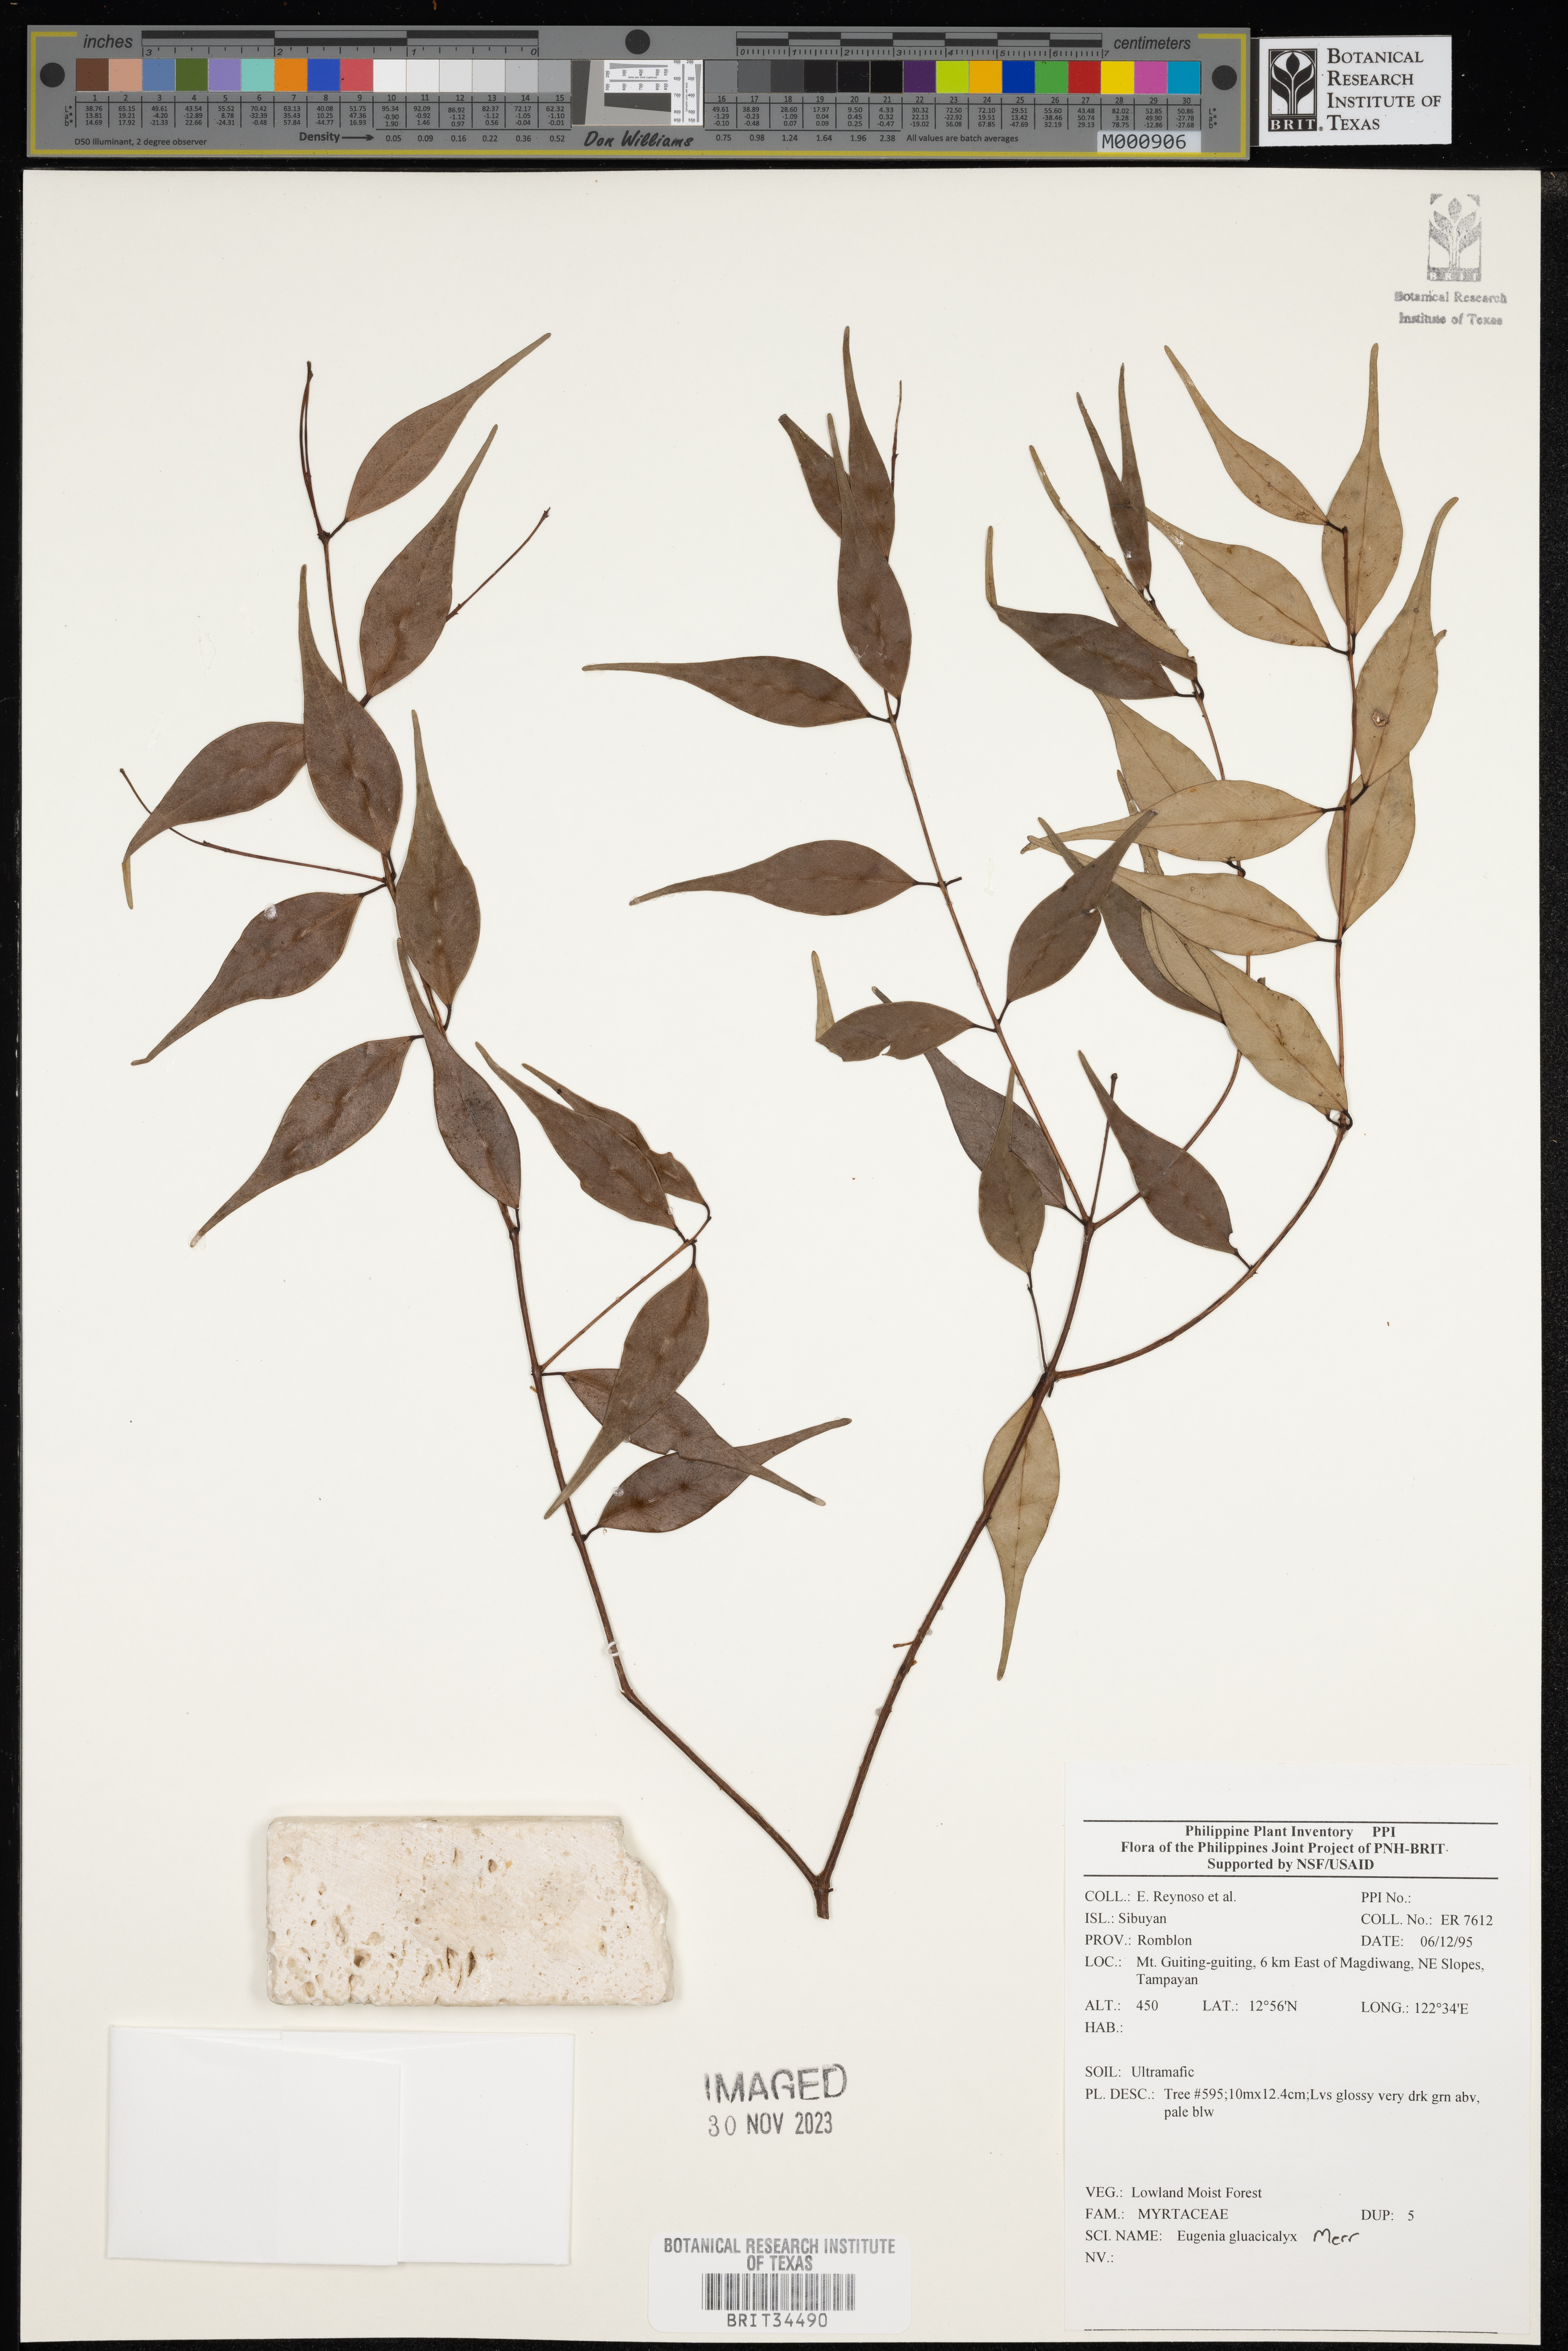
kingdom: Plantae
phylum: Tracheophyta
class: Magnoliopsida
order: Myrtales
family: Myrtaceae
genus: Eugenia
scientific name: Eugenia
